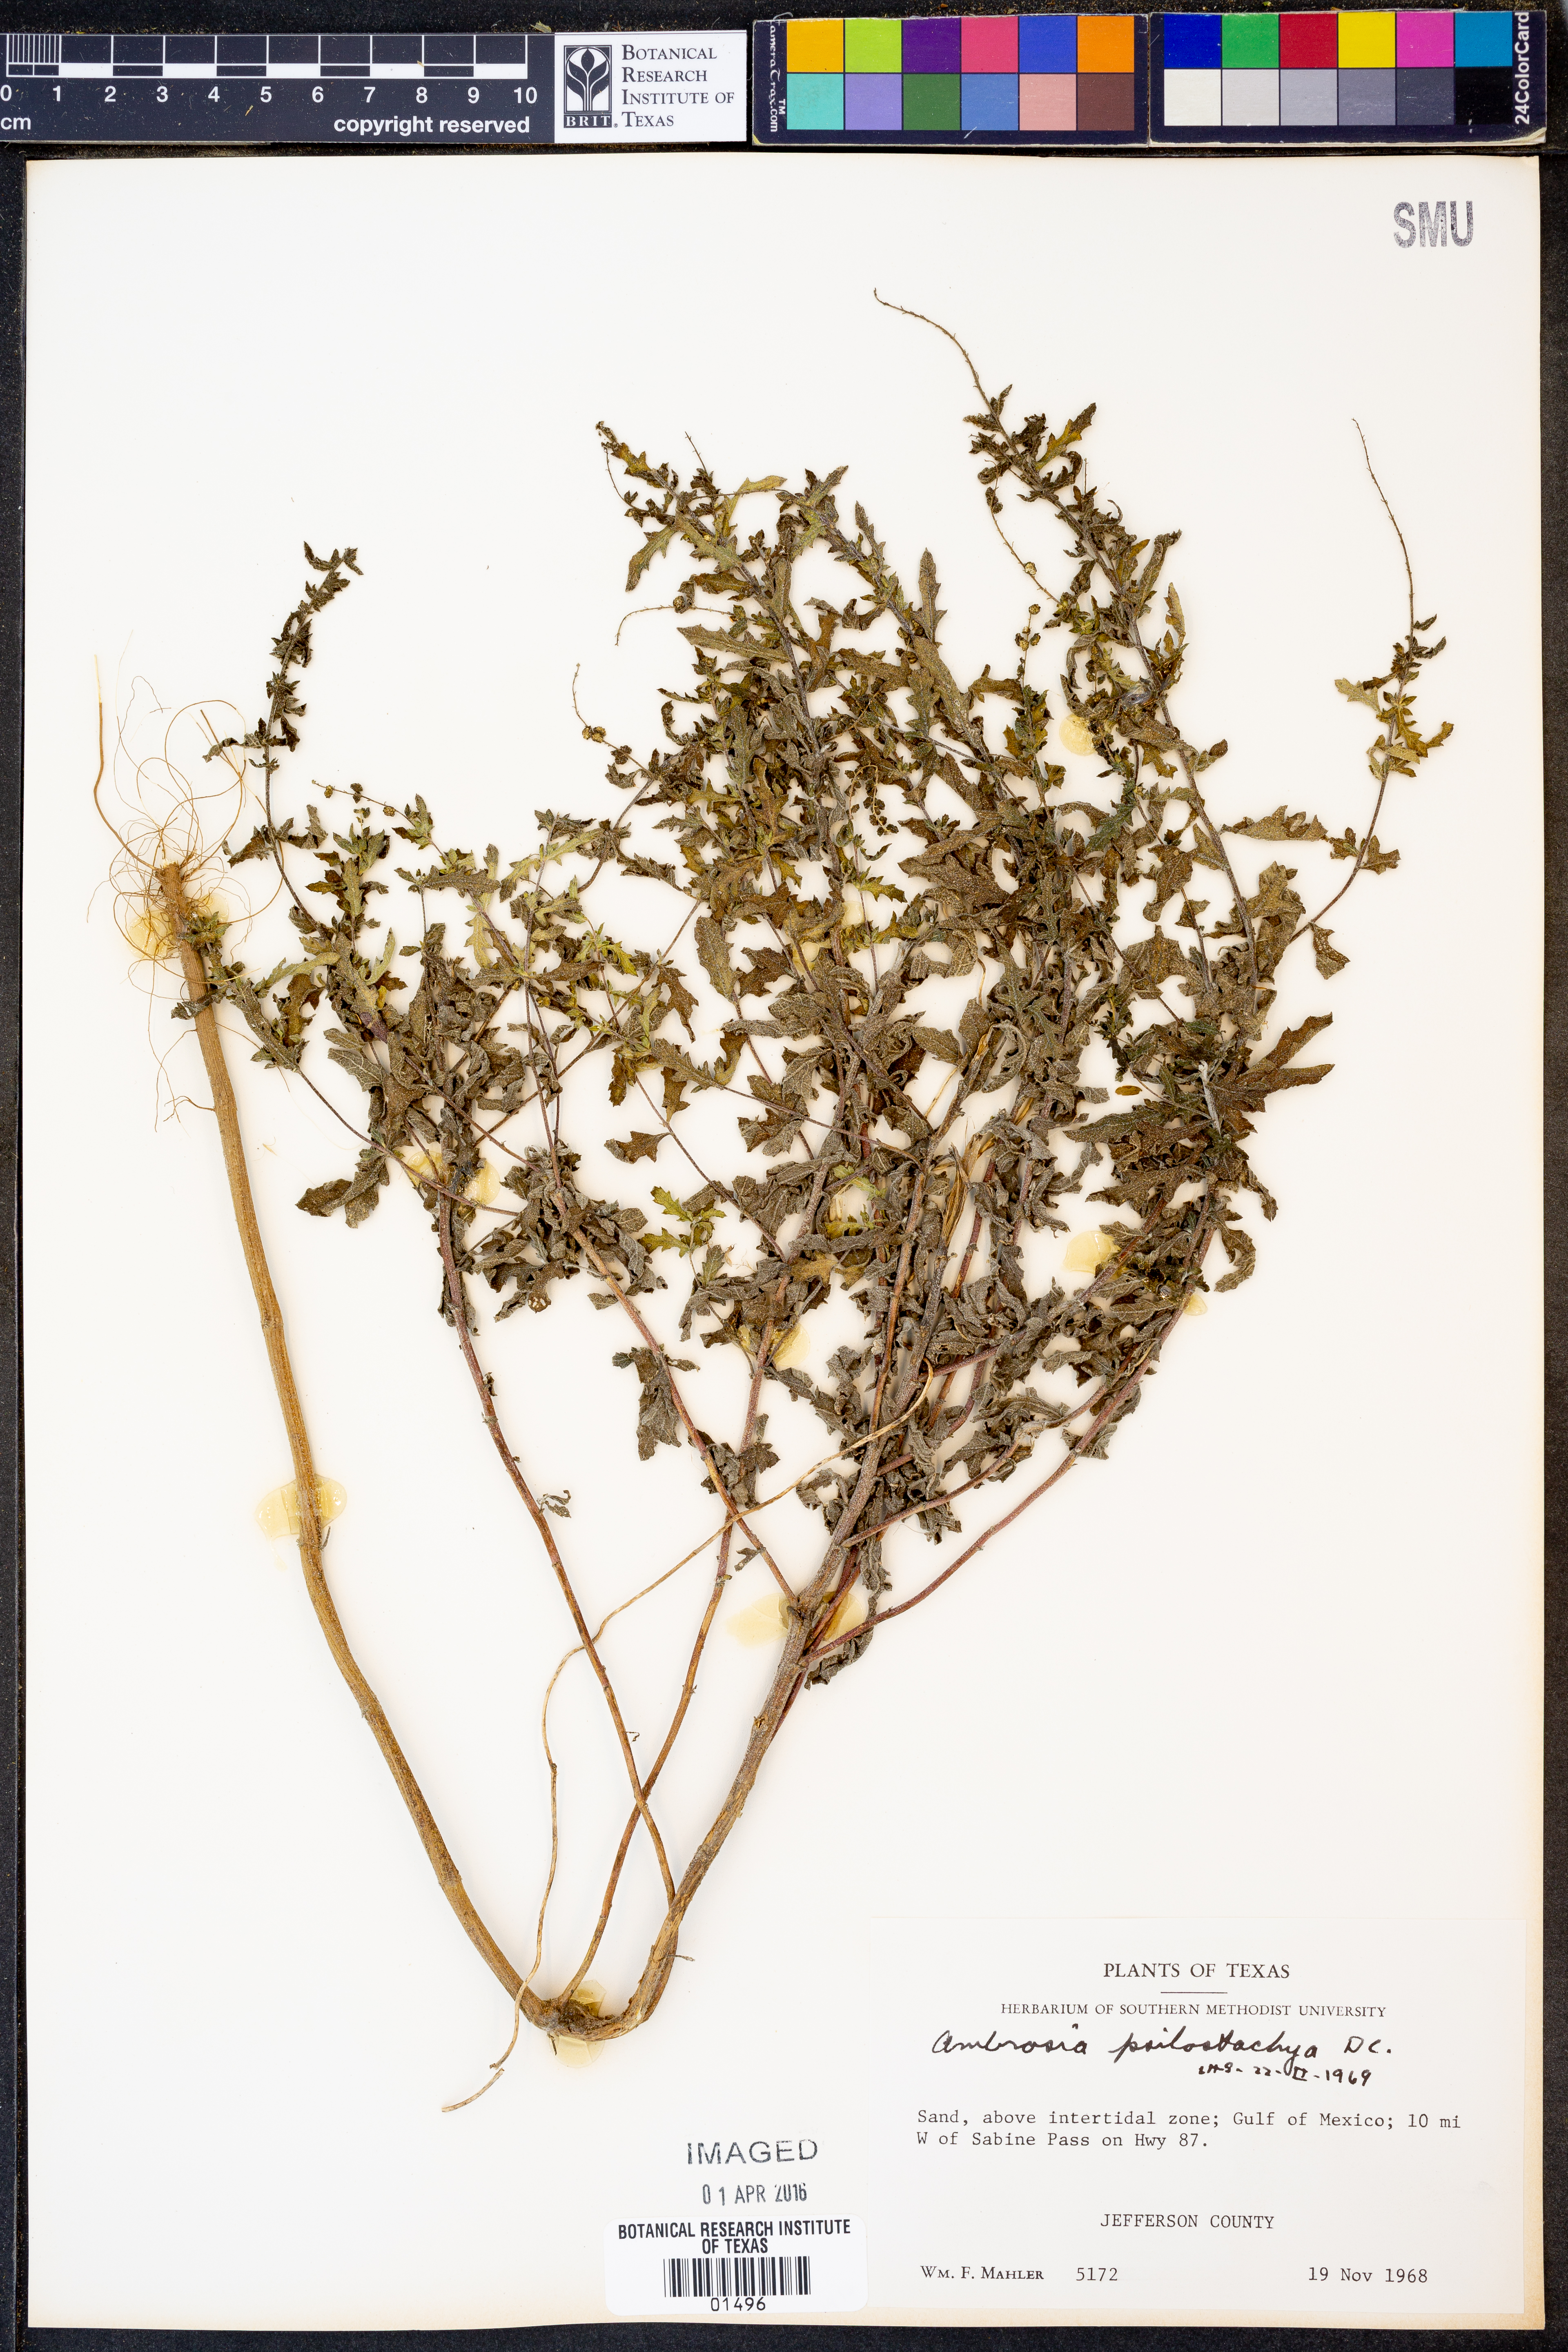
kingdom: Plantae
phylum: Tracheophyta
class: Magnoliopsida
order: Asterales
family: Asteraceae
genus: Ambrosia
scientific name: Ambrosia psilostachya
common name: Perennial ragweed
